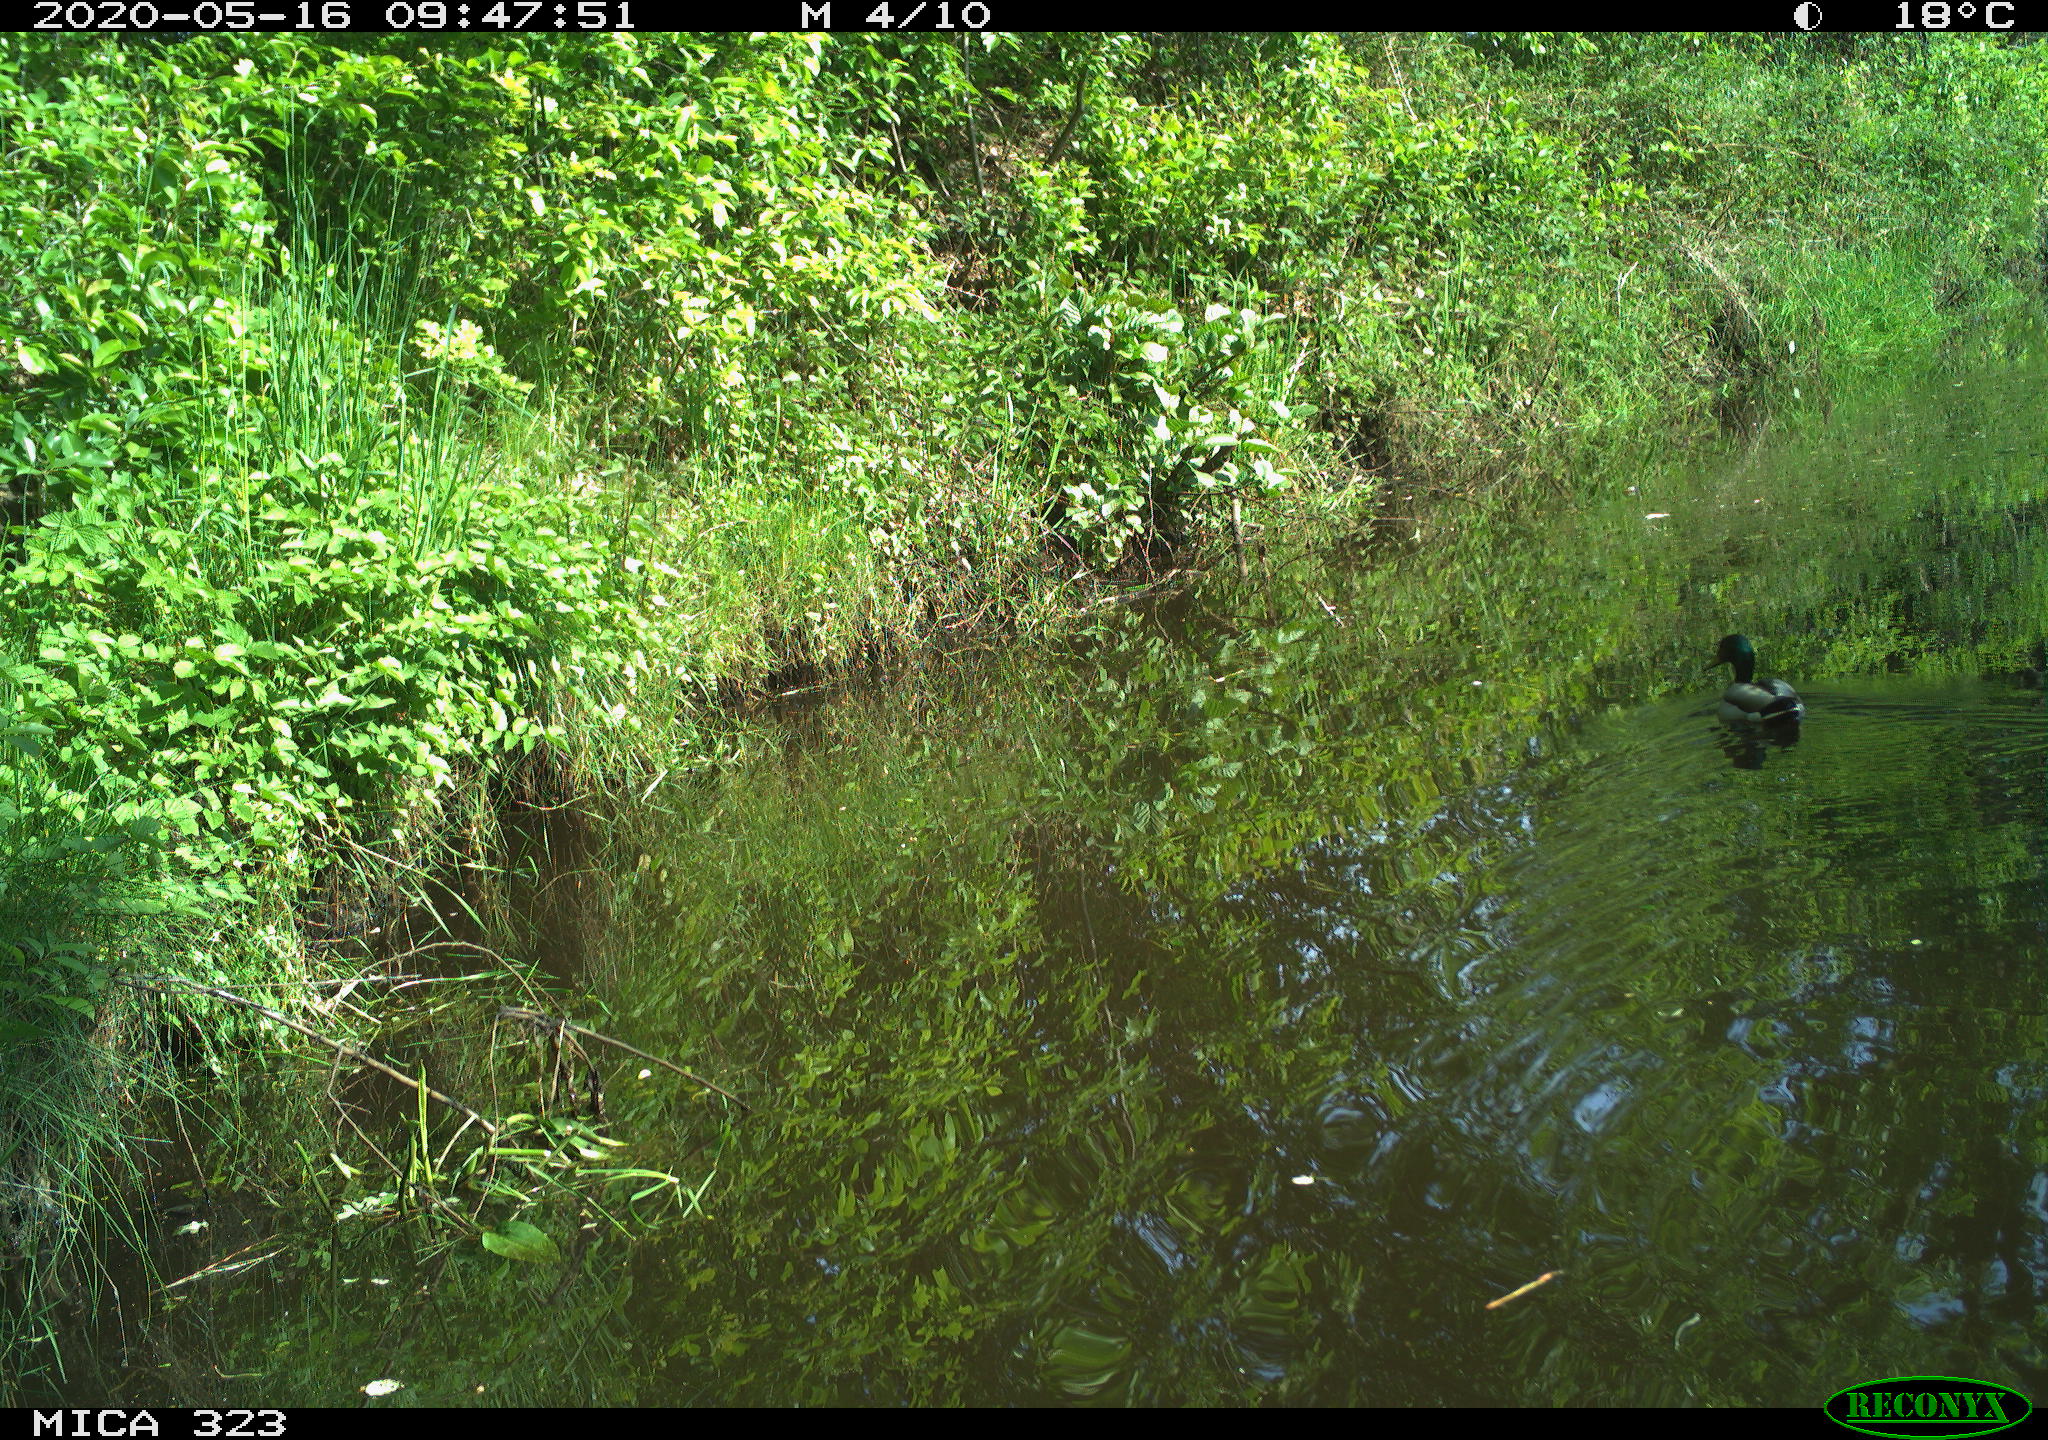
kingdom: Animalia
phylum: Chordata
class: Aves
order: Anseriformes
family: Anatidae
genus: Anas
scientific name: Anas platyrhynchos
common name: Mallard
